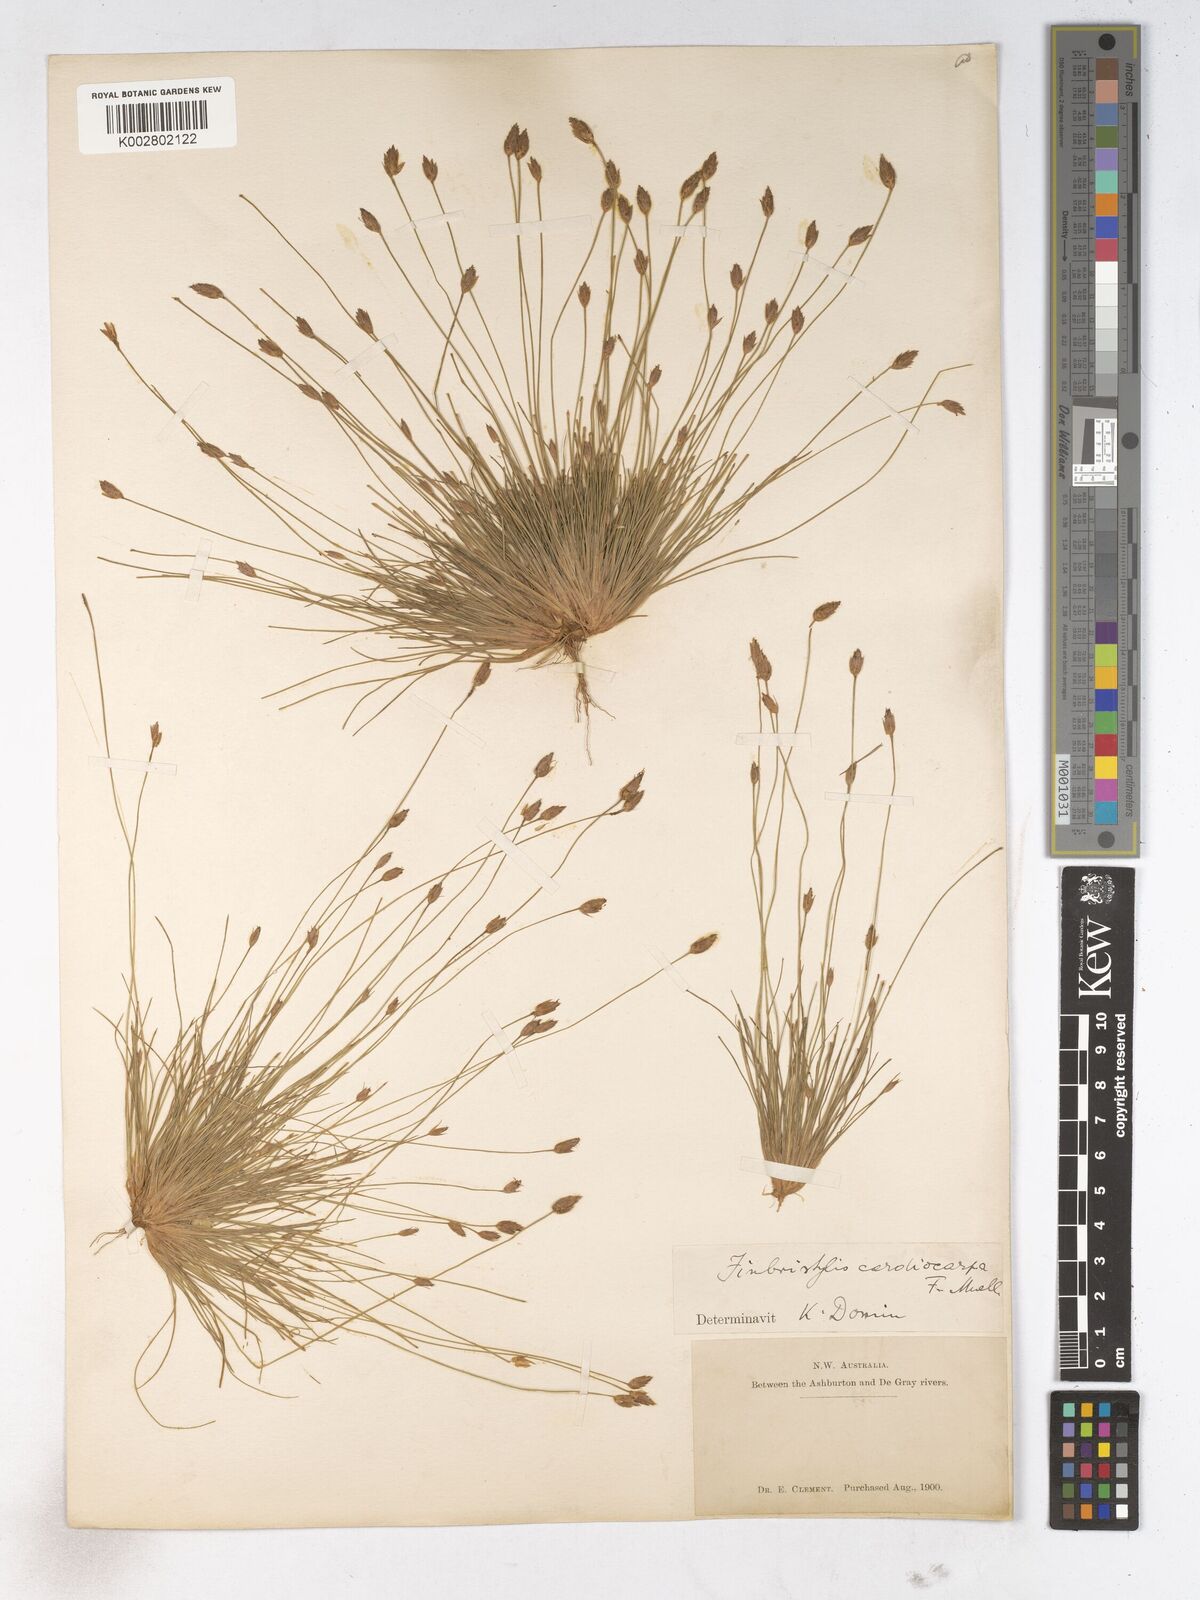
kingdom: Plantae
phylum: Tracheophyta
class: Liliopsida
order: Poales
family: Cyperaceae
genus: Fimbristylis
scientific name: Fimbristylis cardiocarpa
